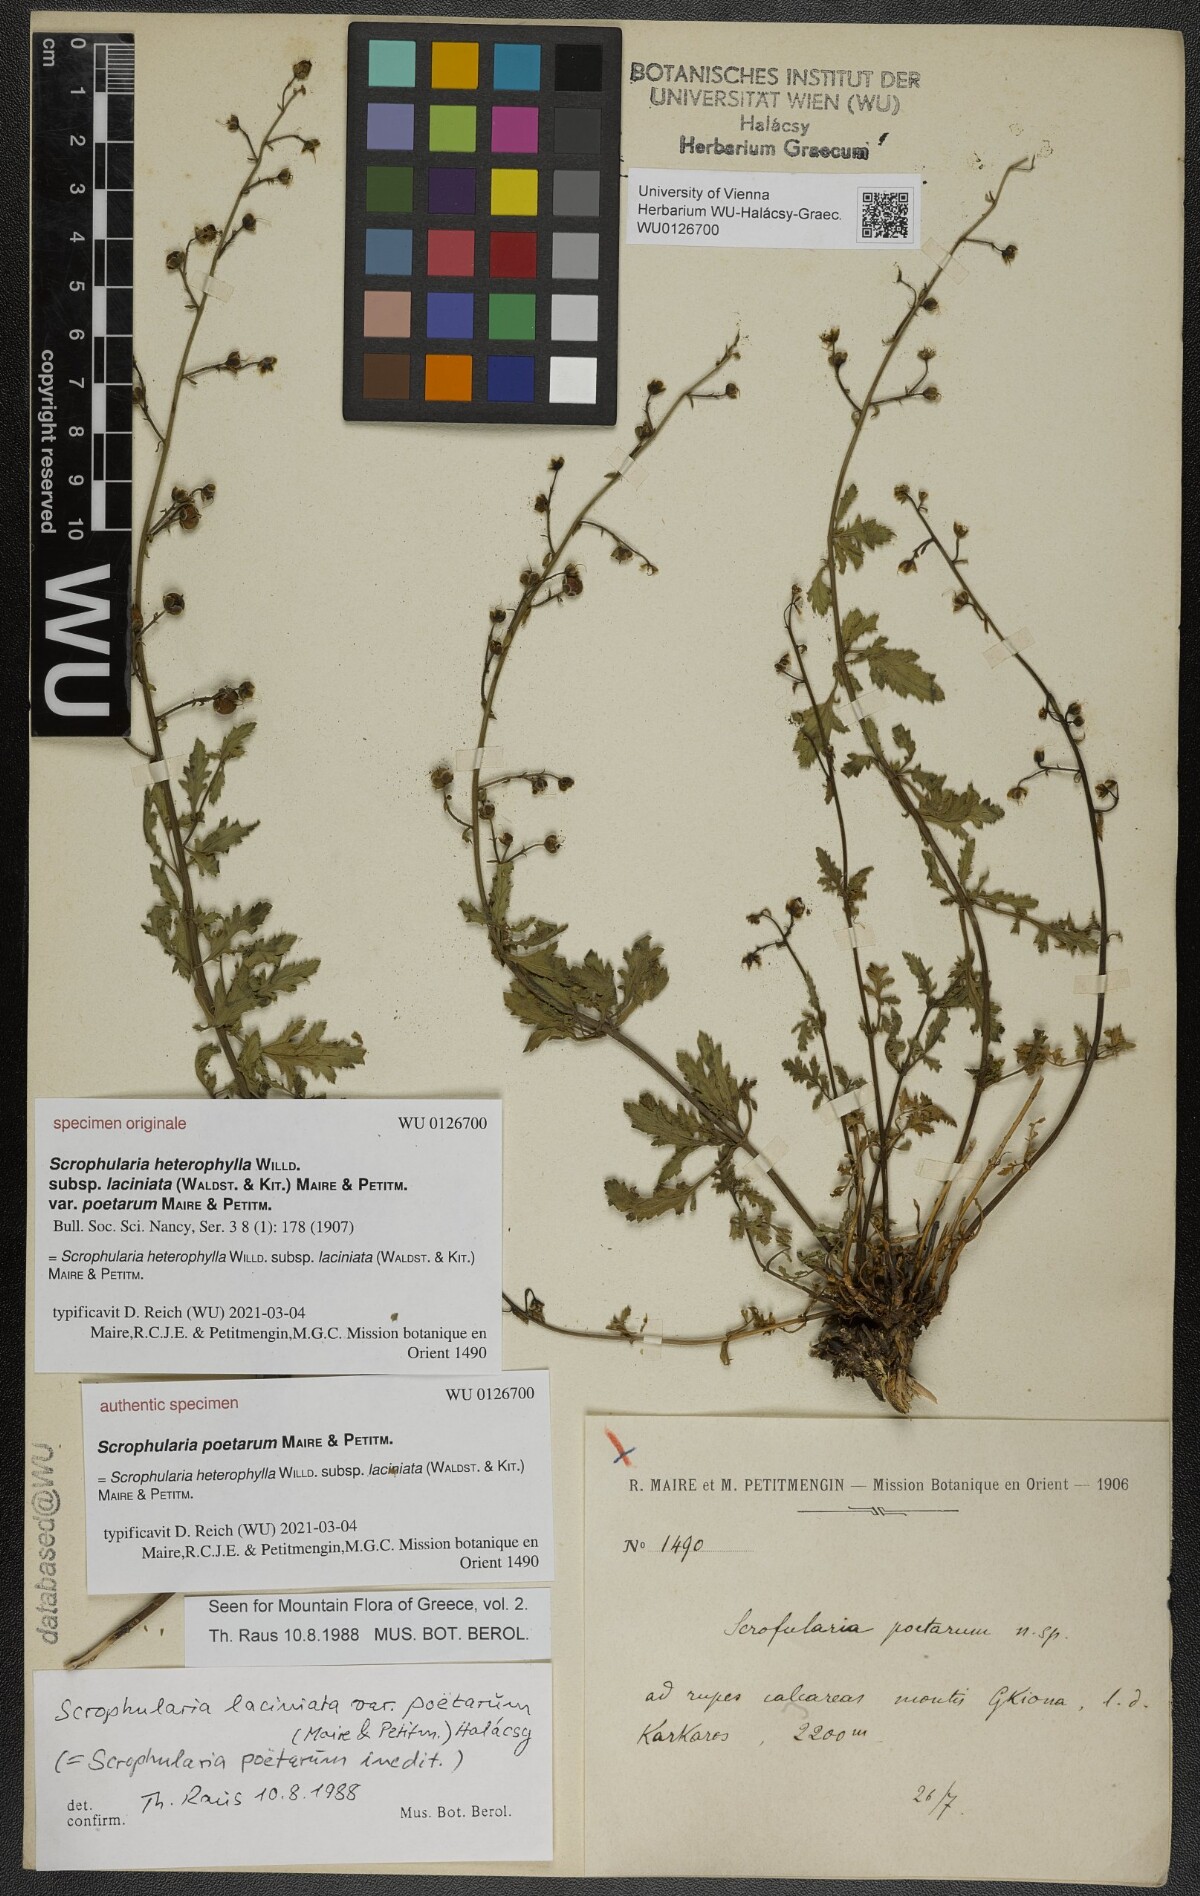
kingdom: Plantae
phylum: Tracheophyta
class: Magnoliopsida
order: Lamiales
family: Scrophulariaceae
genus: Scrophularia
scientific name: Scrophularia heterophylla
